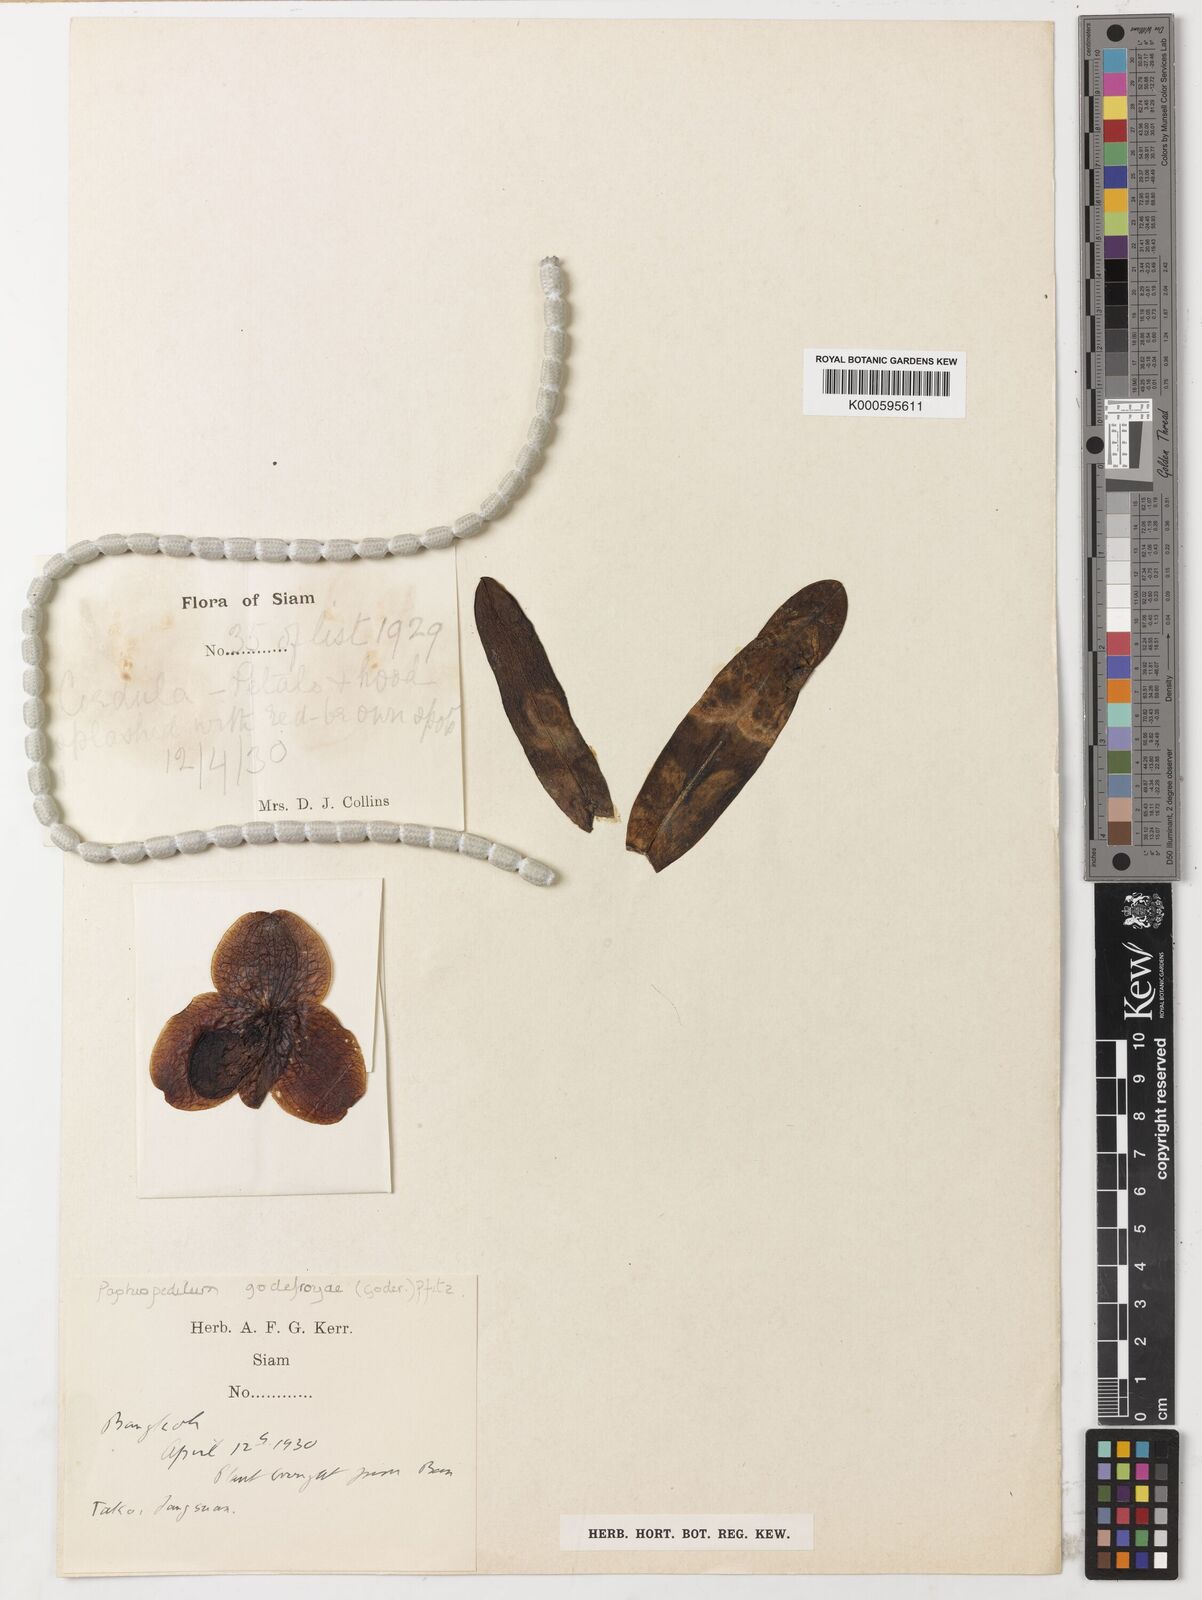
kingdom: Plantae
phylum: Tracheophyta
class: Liliopsida
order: Asparagales
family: Orchidaceae
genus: Paphiopedilum
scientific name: Paphiopedilum
